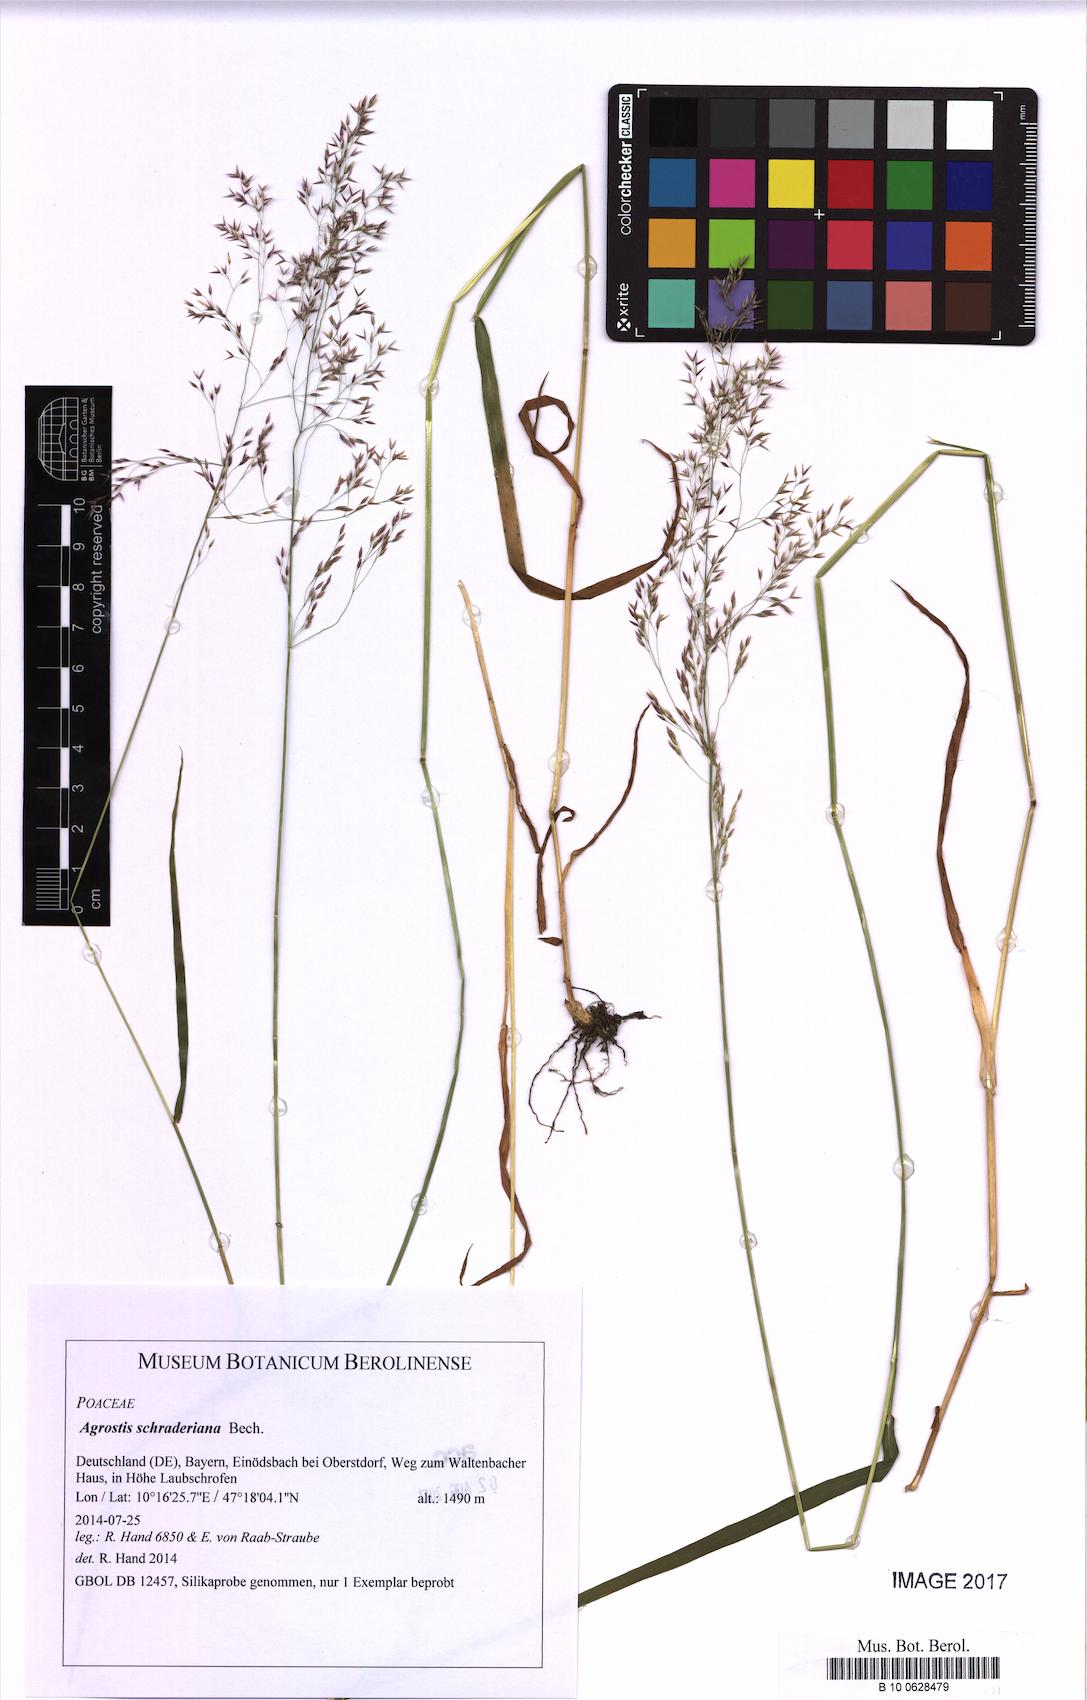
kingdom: Plantae
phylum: Tracheophyta
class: Liliopsida
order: Poales
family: Poaceae
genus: Agrostis
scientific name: Agrostis schraderiana
